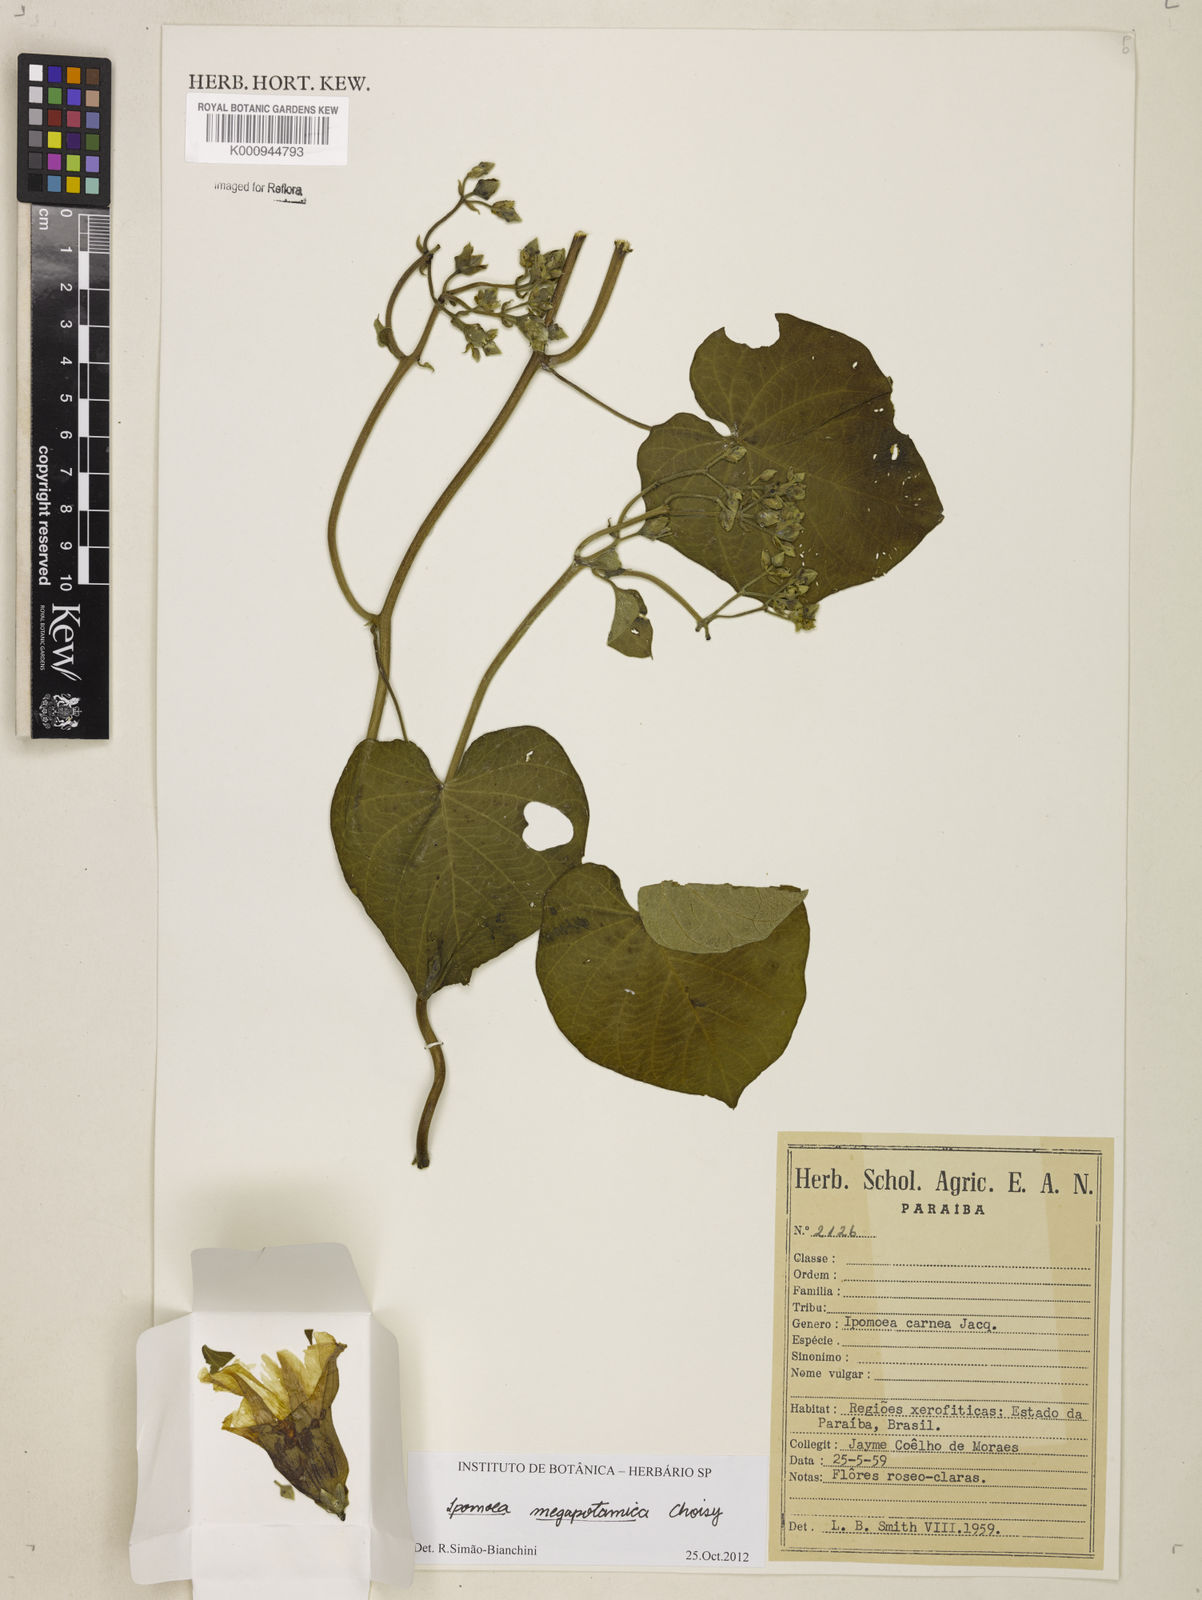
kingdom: Plantae
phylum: Tracheophyta
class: Magnoliopsida
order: Solanales
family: Convolvulaceae
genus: Ipomoea
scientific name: Ipomoea megapotamica
